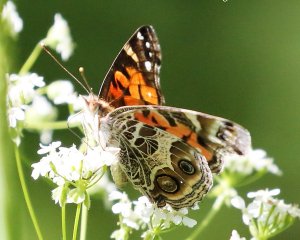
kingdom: Animalia
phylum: Arthropoda
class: Insecta
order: Lepidoptera
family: Nymphalidae
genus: Vanessa
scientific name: Vanessa virginiensis
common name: American Lady
